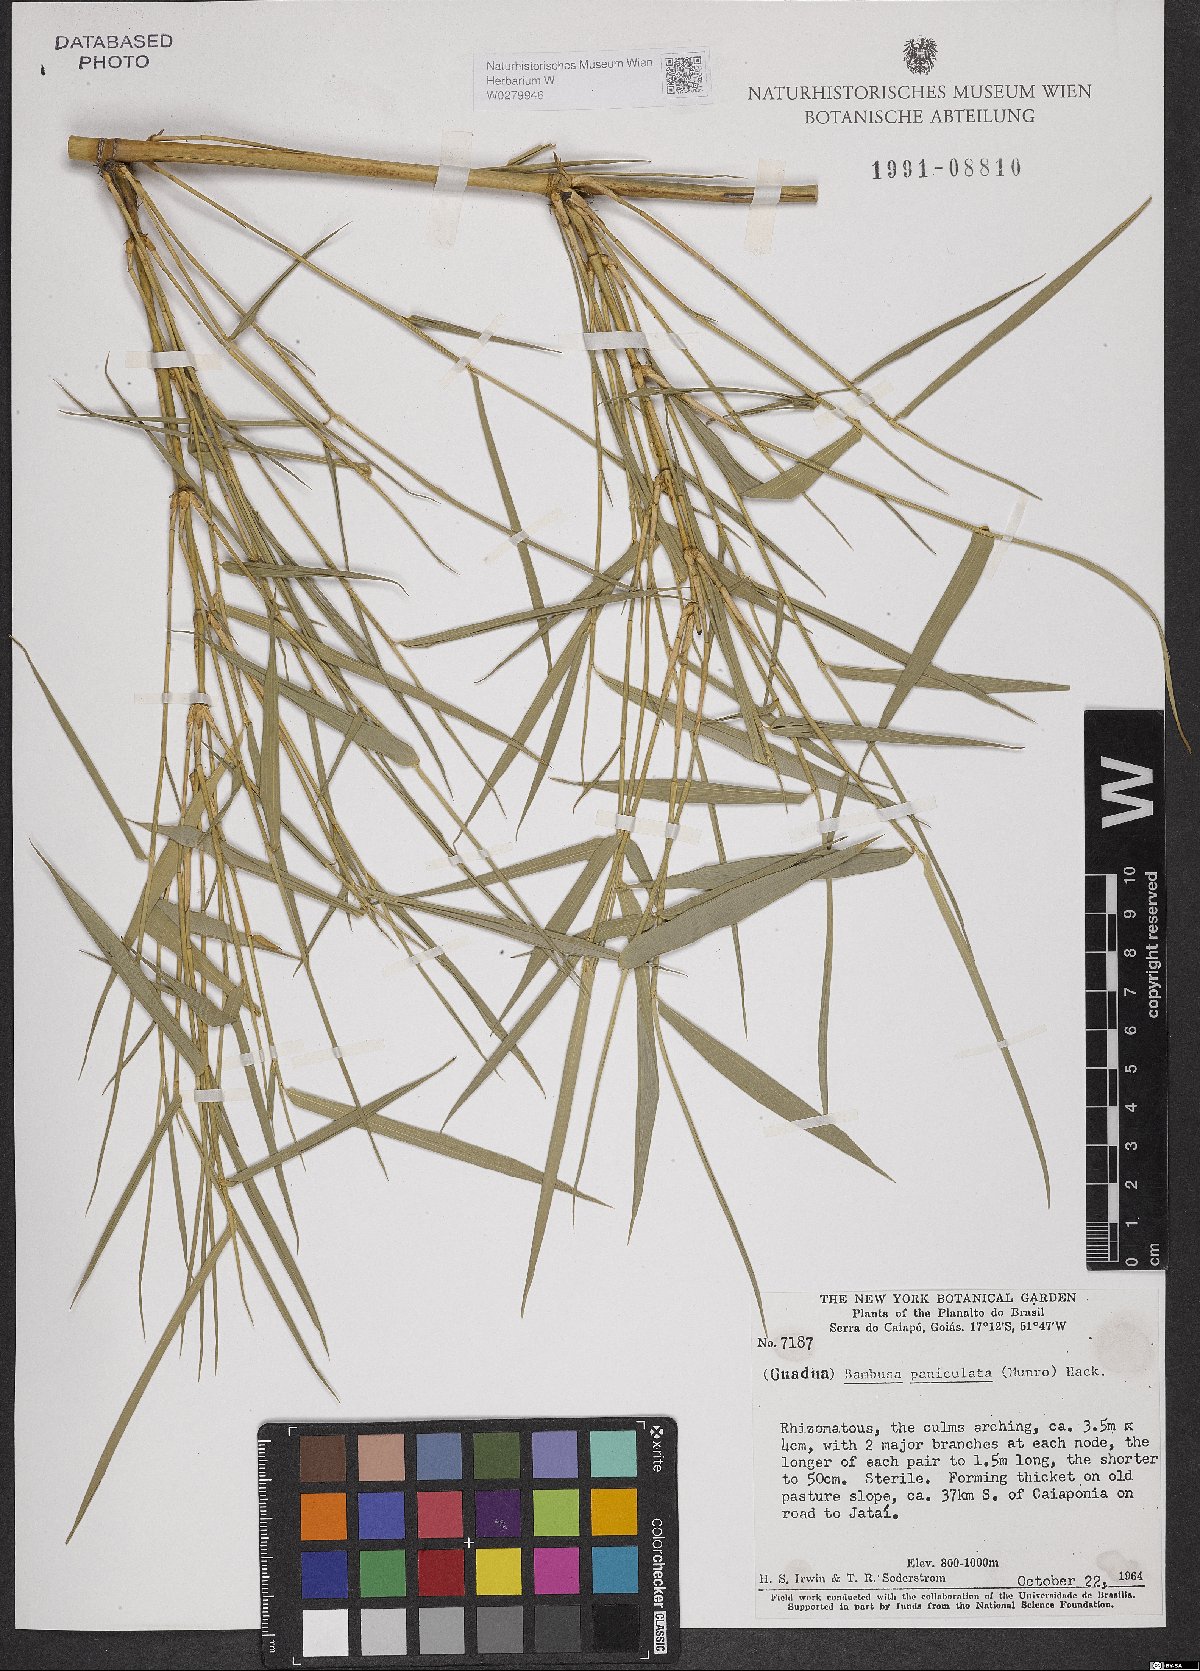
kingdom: Plantae
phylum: Tracheophyta
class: Liliopsida
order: Poales
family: Poaceae
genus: Guadua
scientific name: Guadua paniculata
